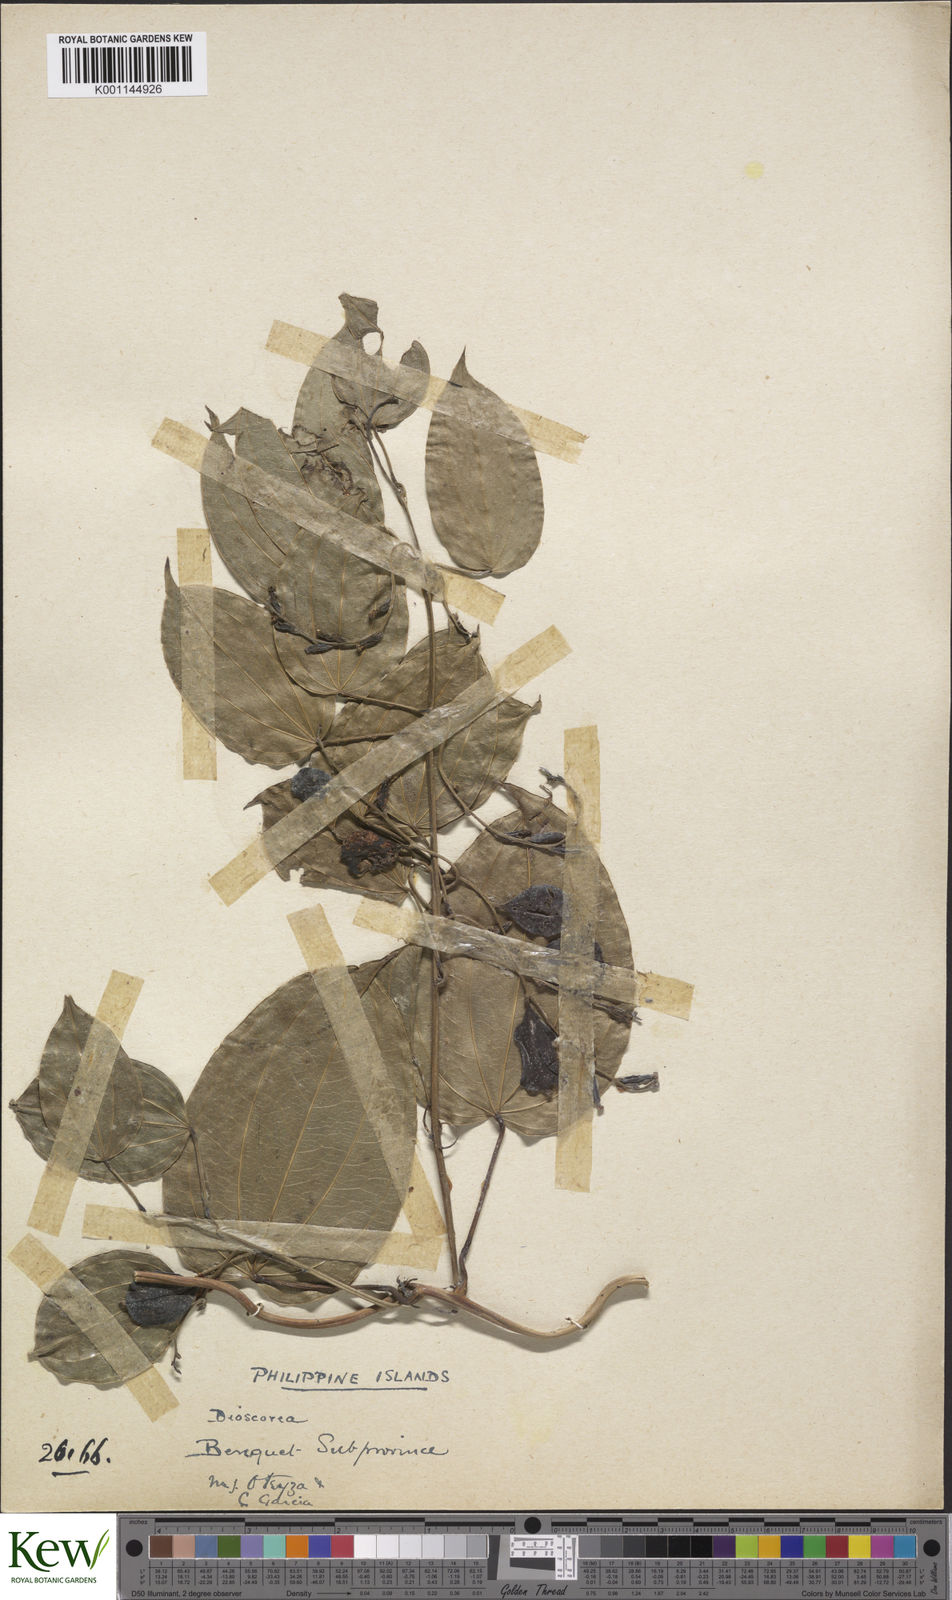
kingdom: Plantae
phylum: Tracheophyta
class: Liliopsida
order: Dioscoreales
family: Dioscoreaceae
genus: Dioscorea
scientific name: Dioscorea
